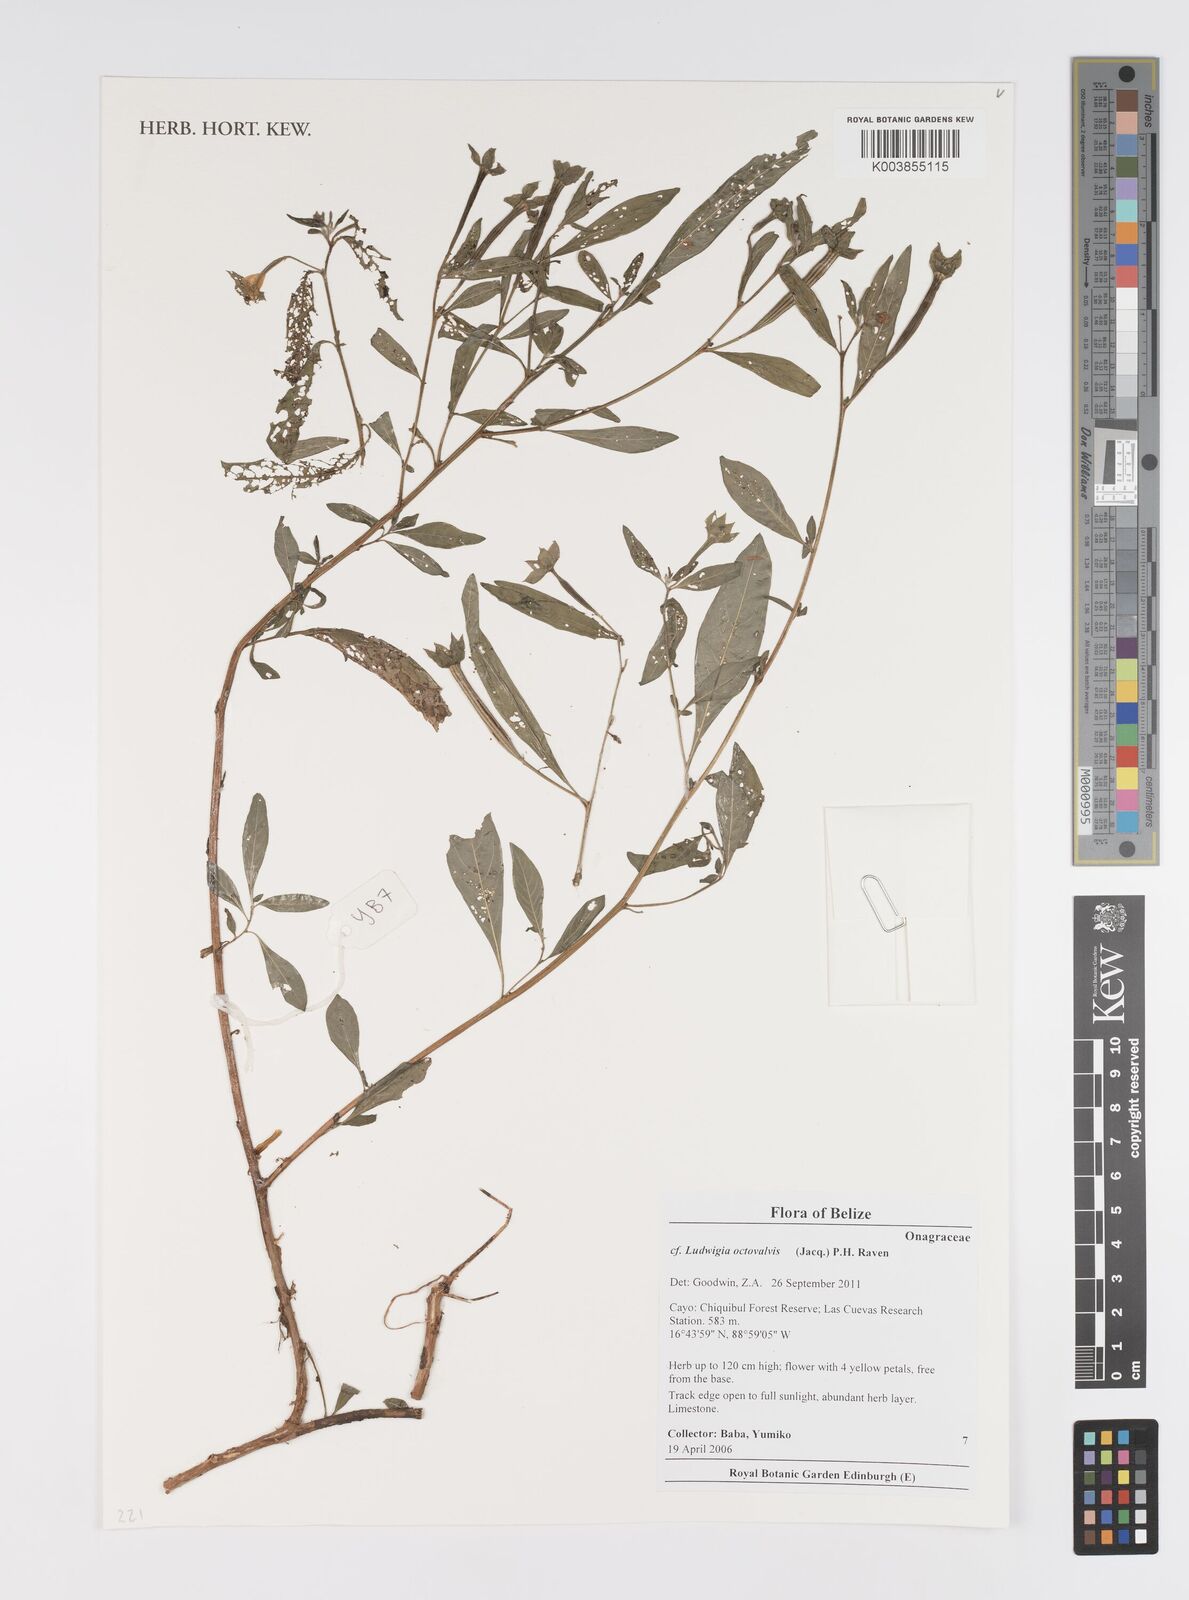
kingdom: Plantae
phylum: Tracheophyta
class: Magnoliopsida
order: Myrtales
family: Onagraceae
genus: Ludwigia
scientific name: Ludwigia octovalvis
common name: Water-primrose
